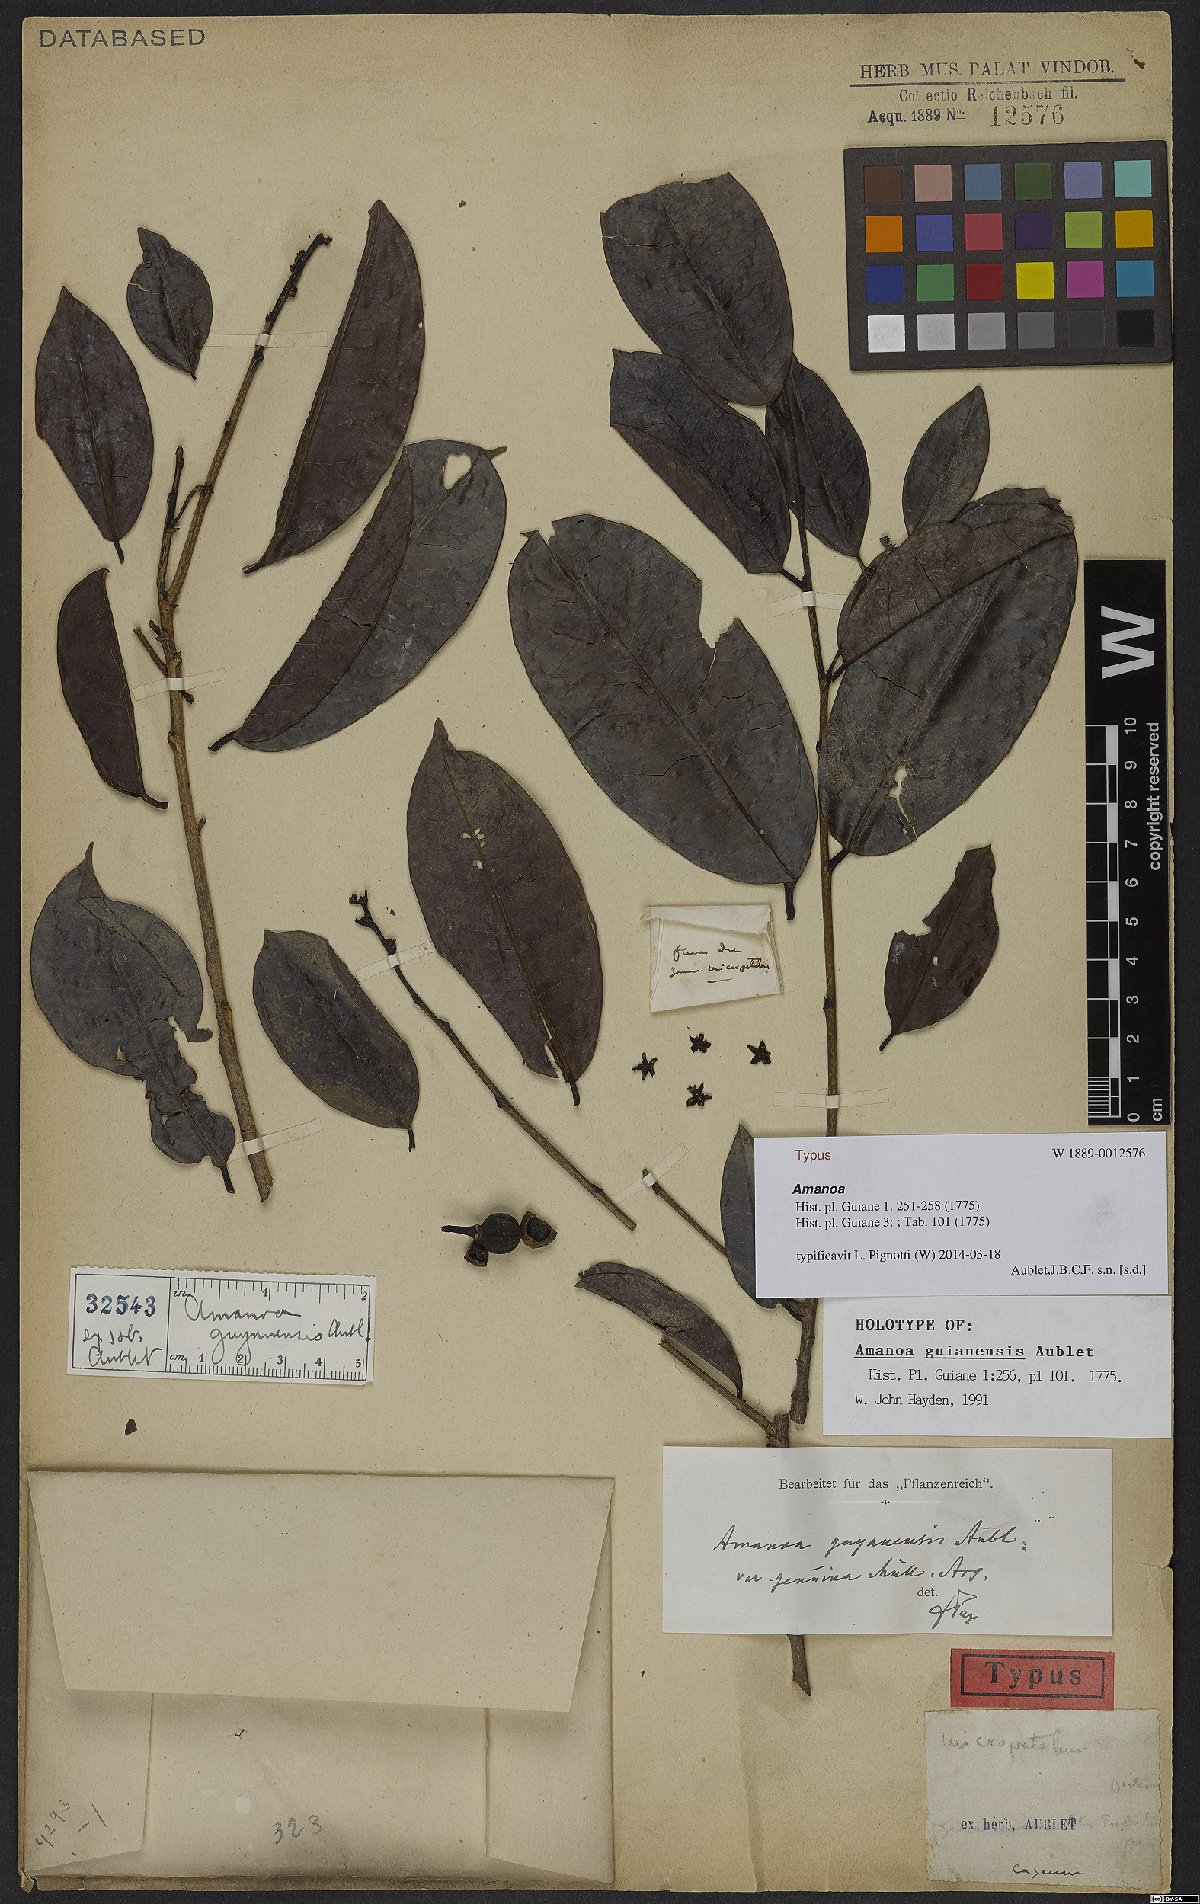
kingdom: Plantae
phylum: Tracheophyta
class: Magnoliopsida
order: Malpighiales
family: Phyllanthaceae
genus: Amanoa
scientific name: Amanoa guianensis
